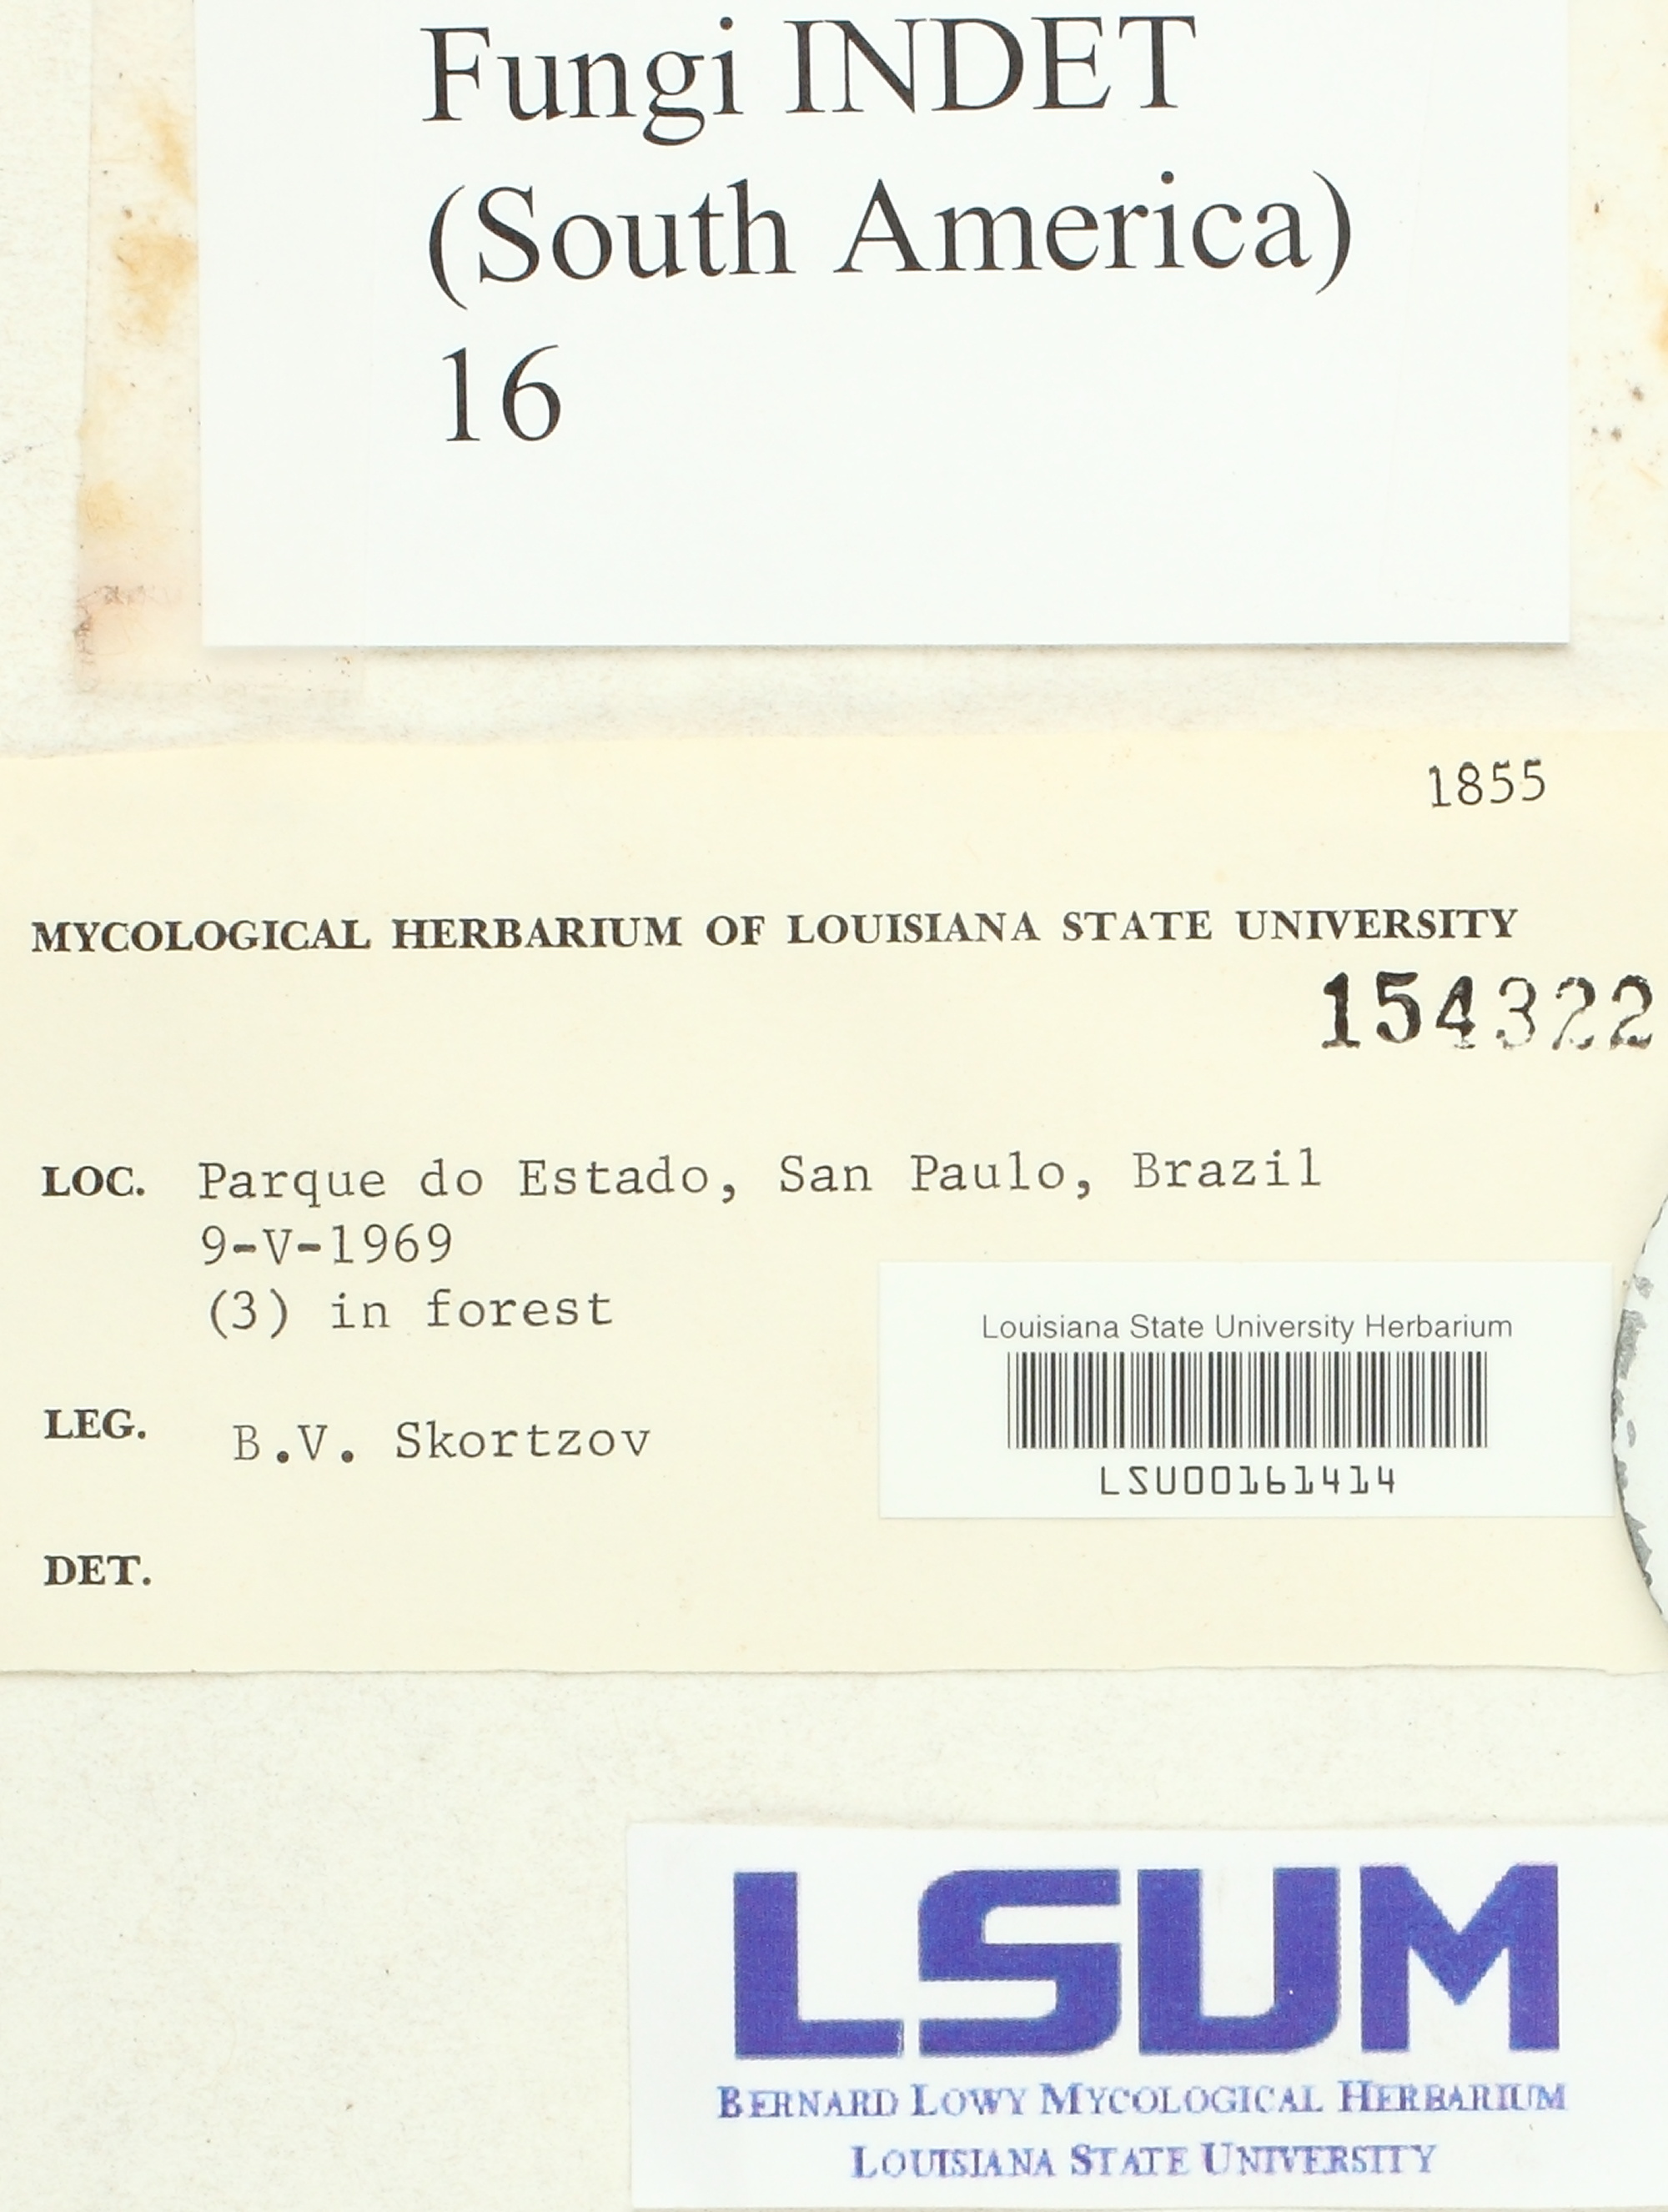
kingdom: Fungi
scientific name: Fungi
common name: Fungi
